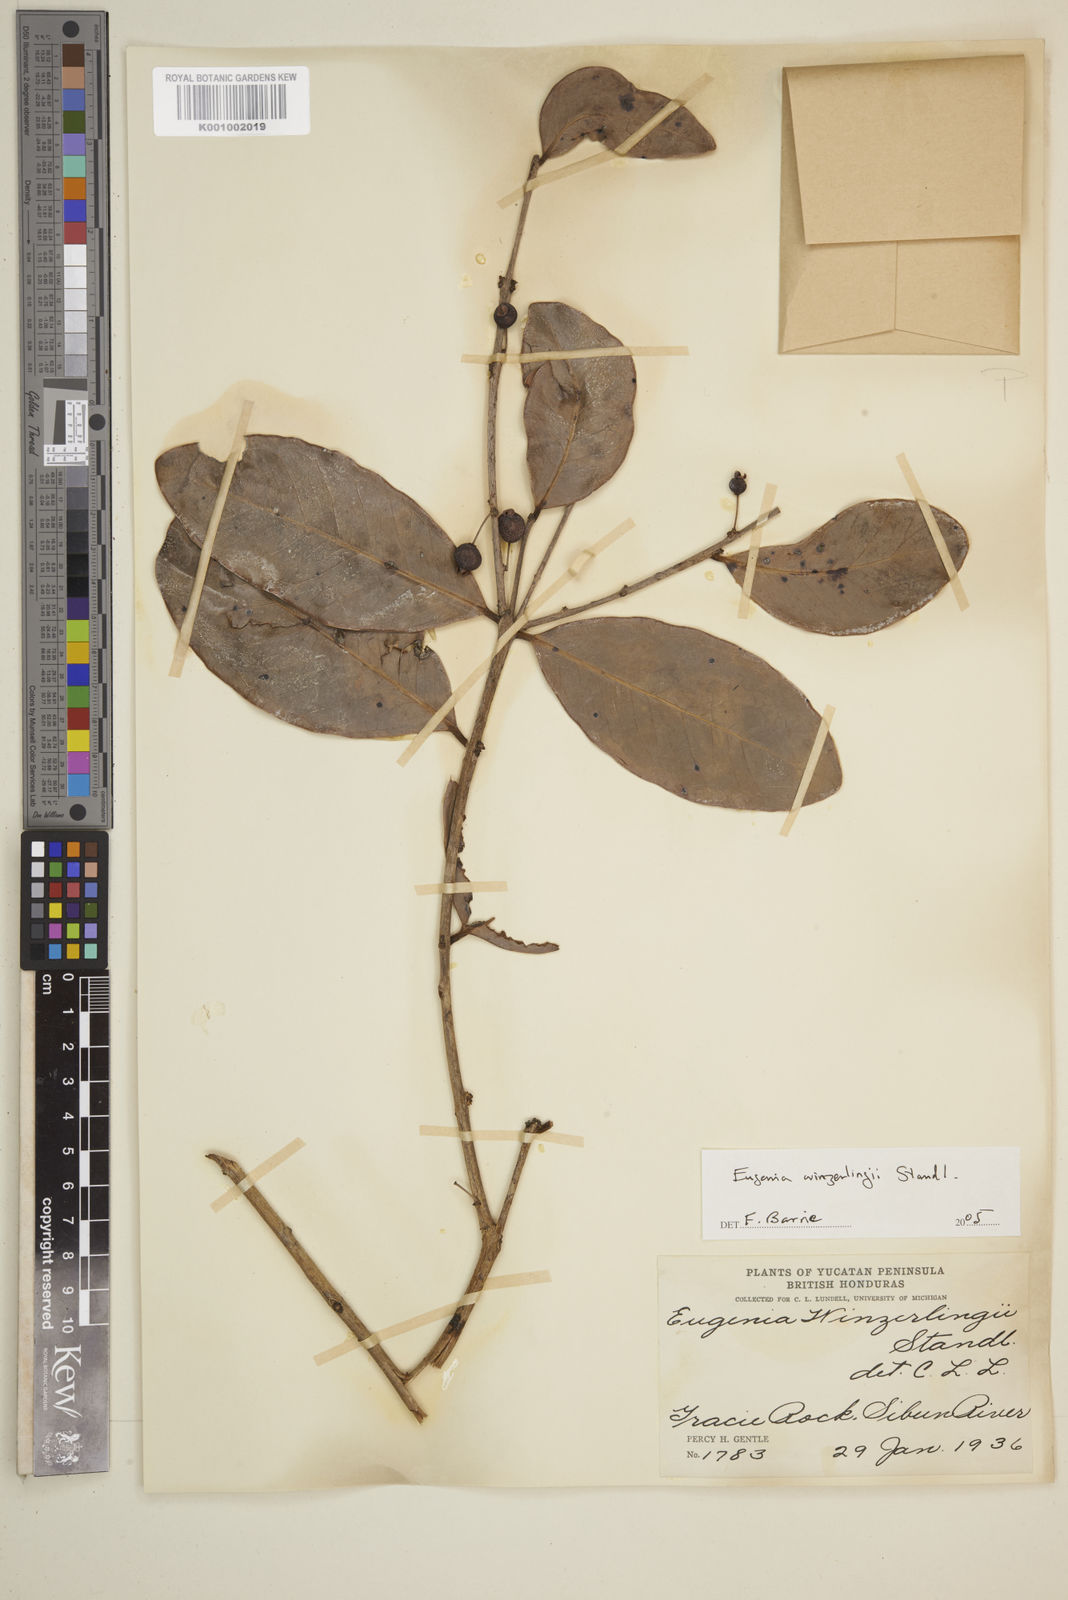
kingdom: Plantae
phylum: Tracheophyta
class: Magnoliopsida
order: Myrtales
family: Myrtaceae
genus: Eugenia
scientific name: Eugenia winzerlingii
